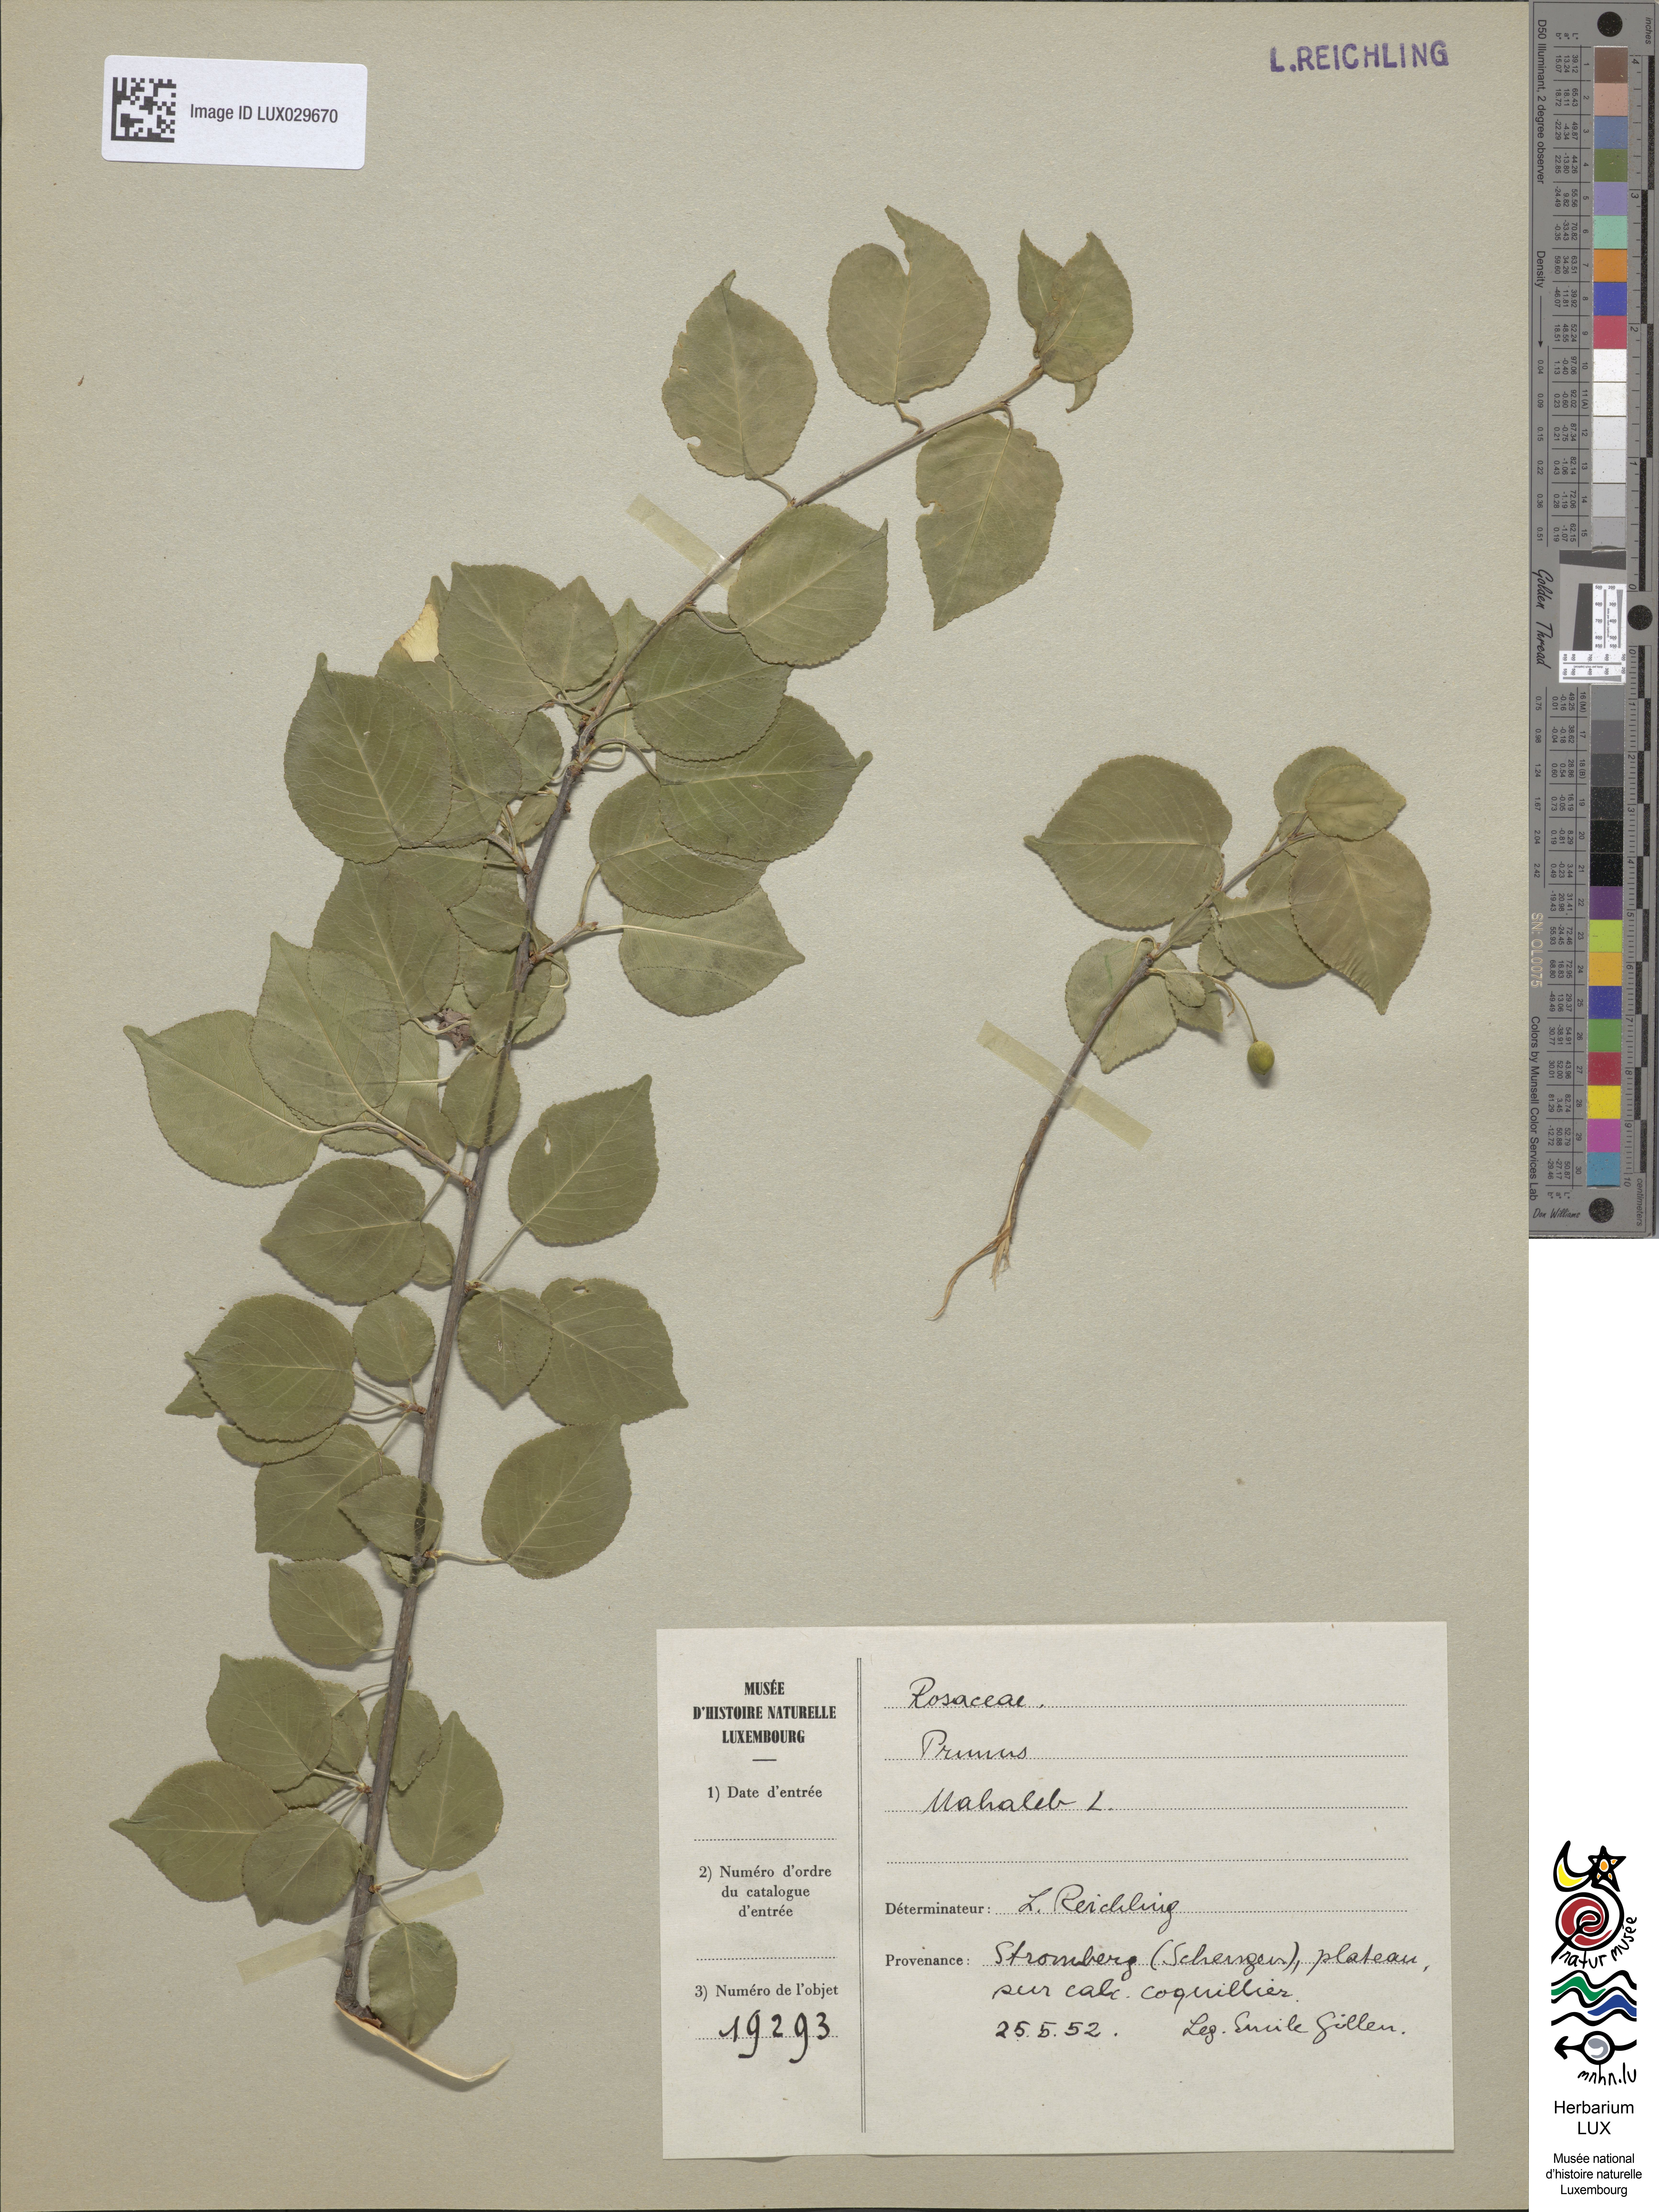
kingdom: Plantae
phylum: Tracheophyta
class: Magnoliopsida
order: Rosales
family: Rosaceae
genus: Prunus
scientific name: Prunus mahaleb
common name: Mahaleb cherry
